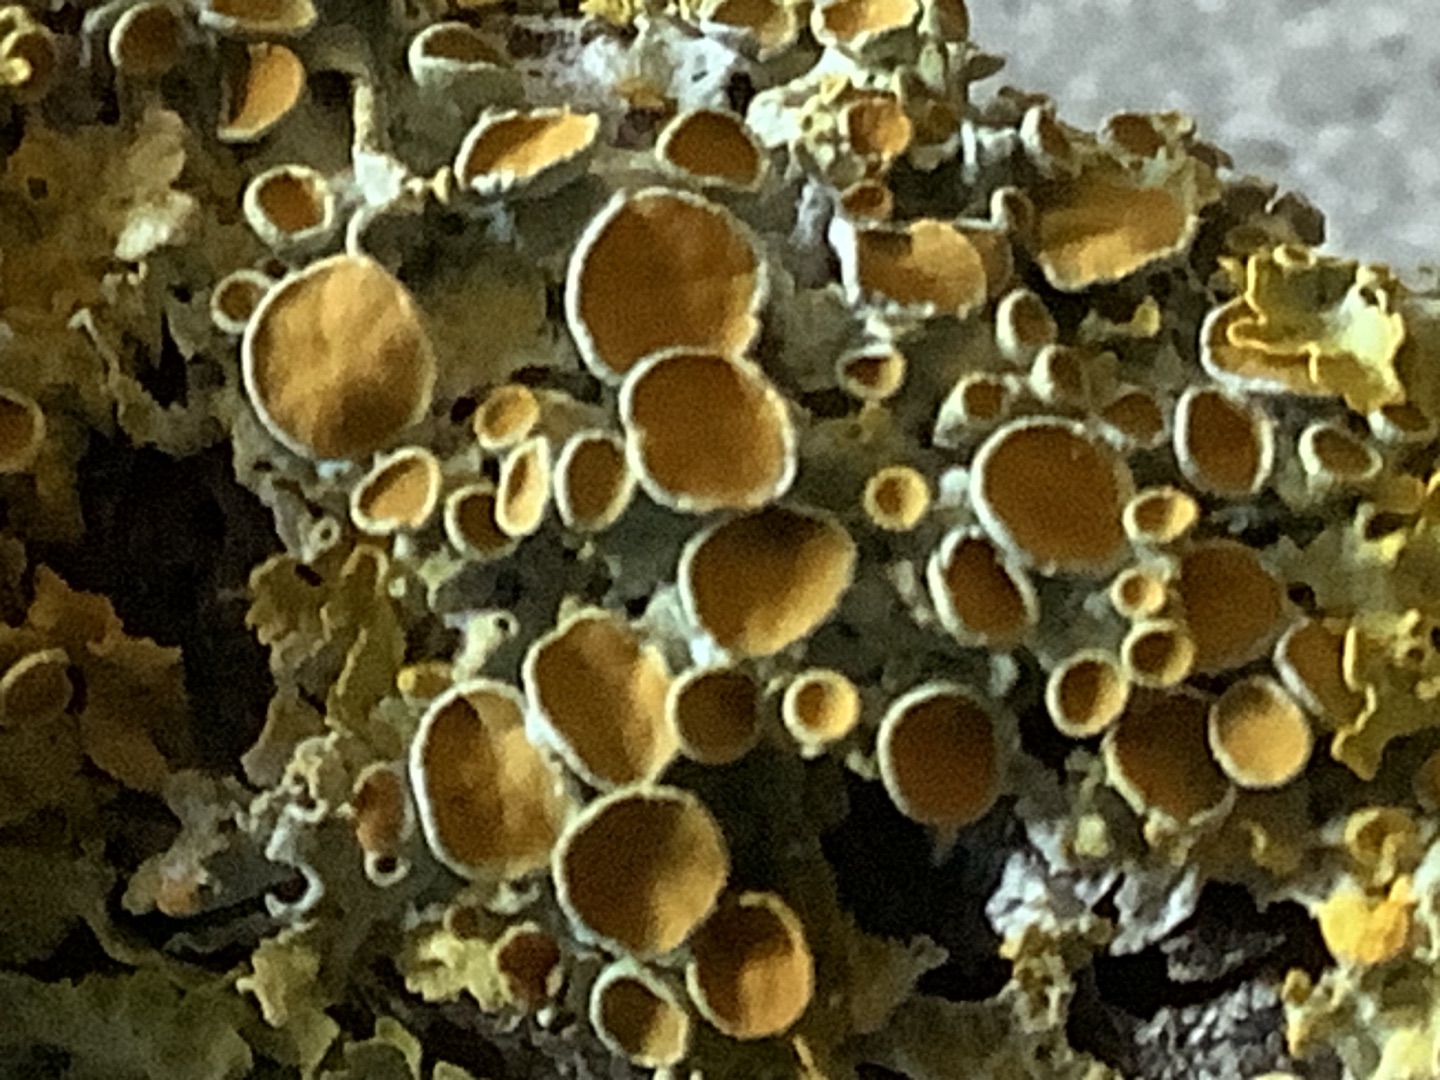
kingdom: Fungi
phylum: Ascomycota
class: Lecanoromycetes
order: Teloschistales
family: Teloschistaceae
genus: Xanthoria
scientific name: Xanthoria parietina
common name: Almindelig væggelav
